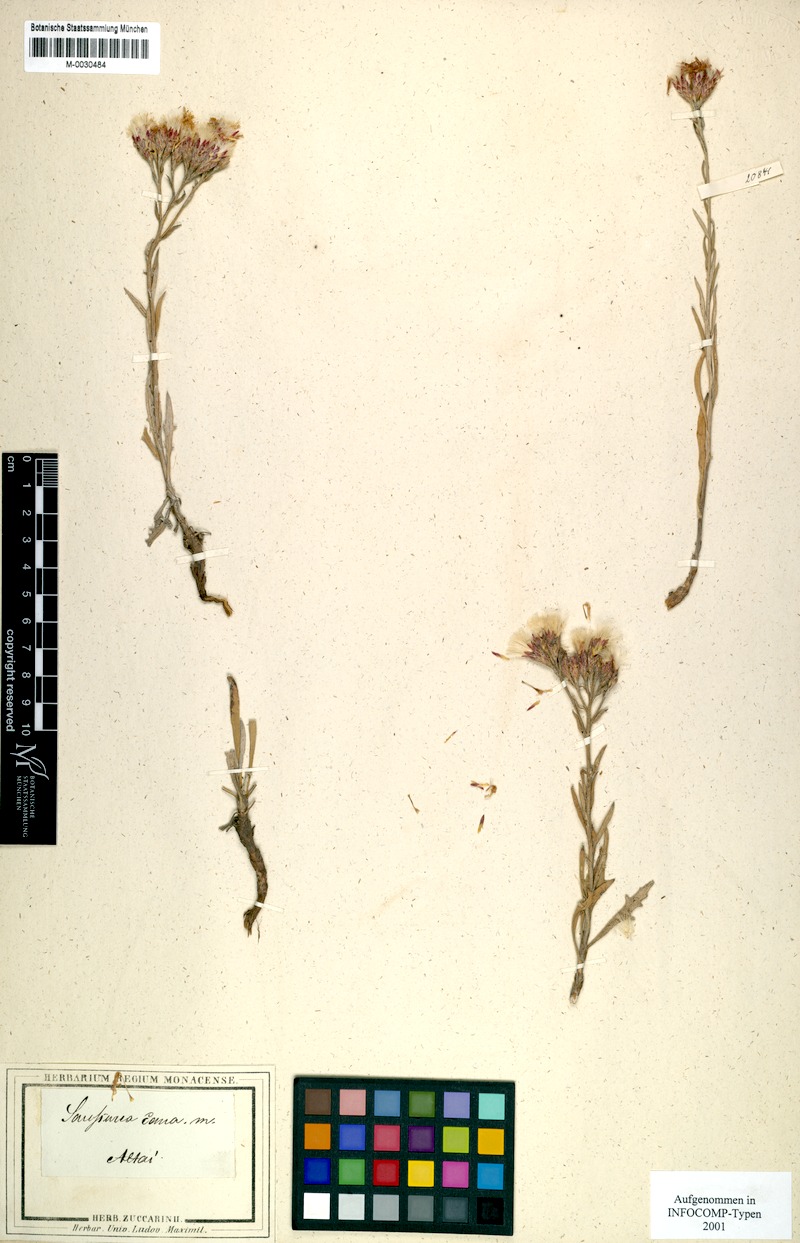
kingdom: Plantae
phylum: Tracheophyta
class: Magnoliopsida
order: Asterales
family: Asteraceae
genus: Saussurea
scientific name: Saussurea cana
